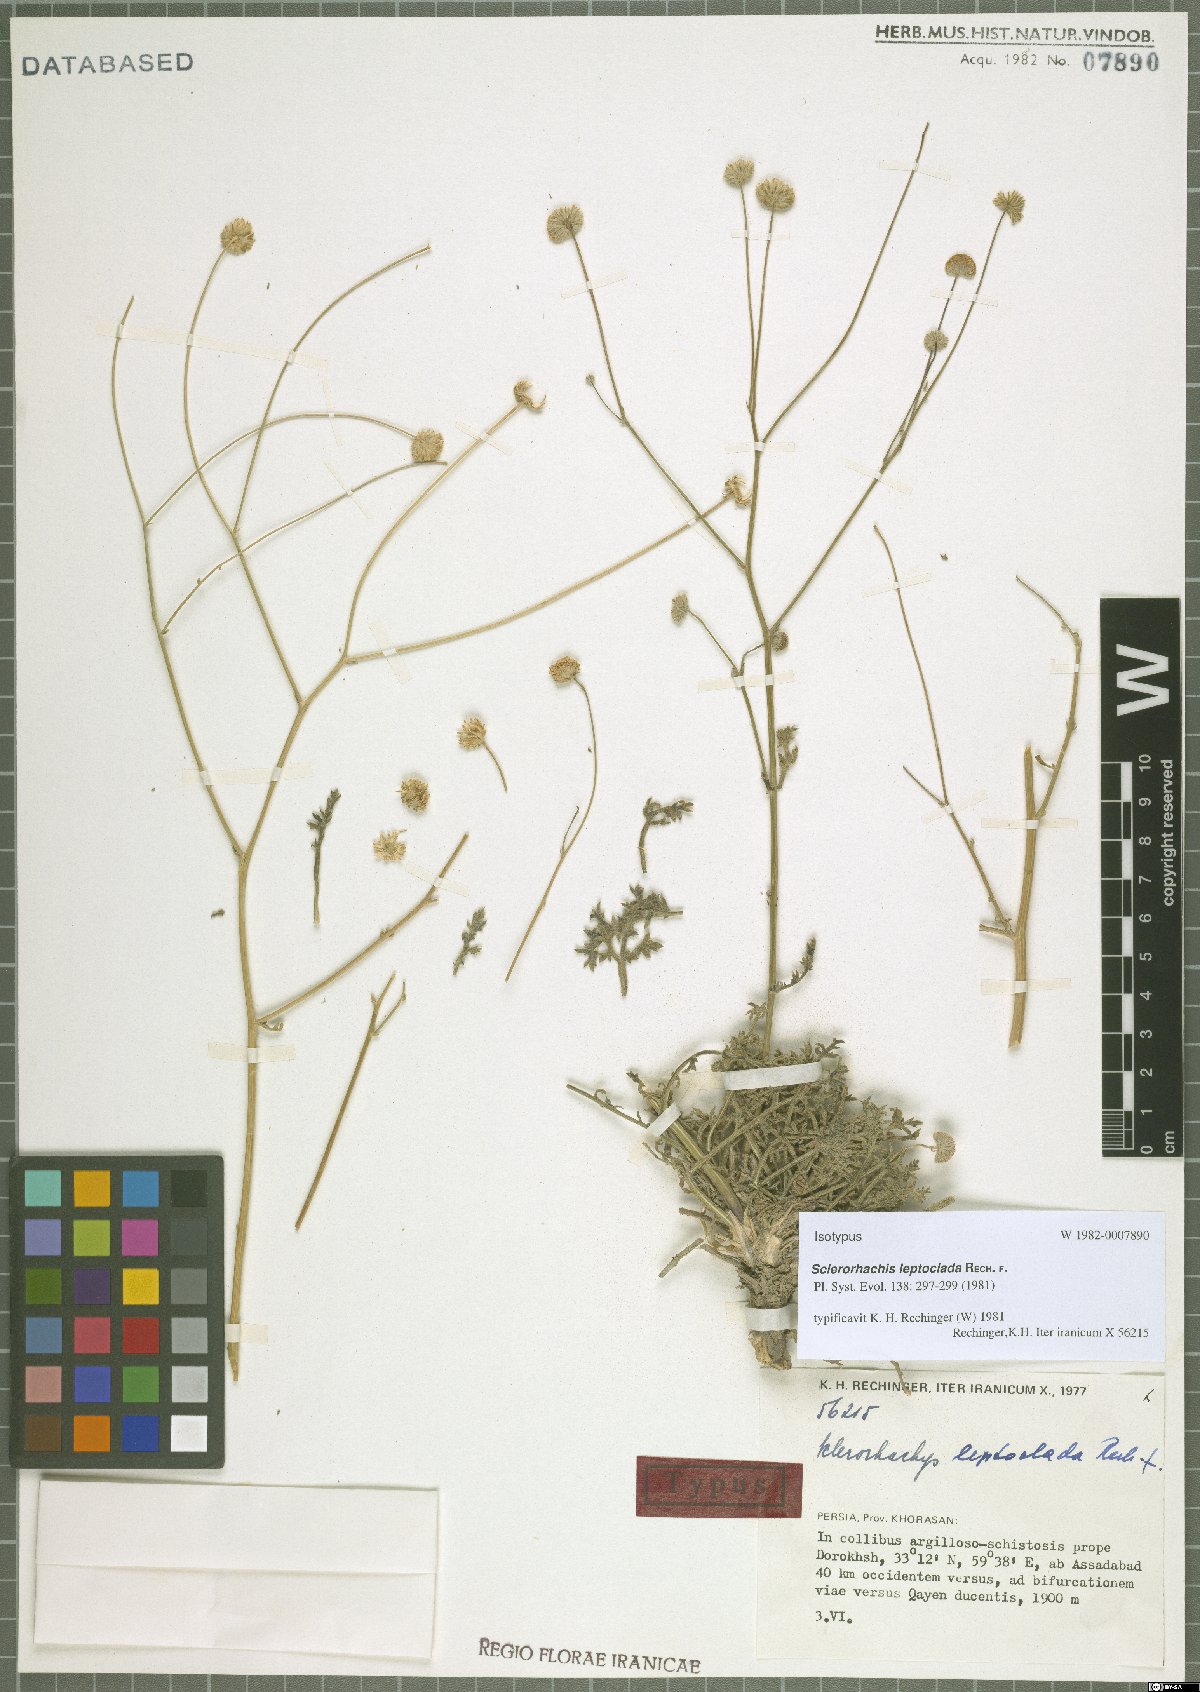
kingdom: Plantae
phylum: Tracheophyta
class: Magnoliopsida
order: Asterales
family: Asteraceae
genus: Sclerorhachis
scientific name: Sclerorhachis leptoclada
